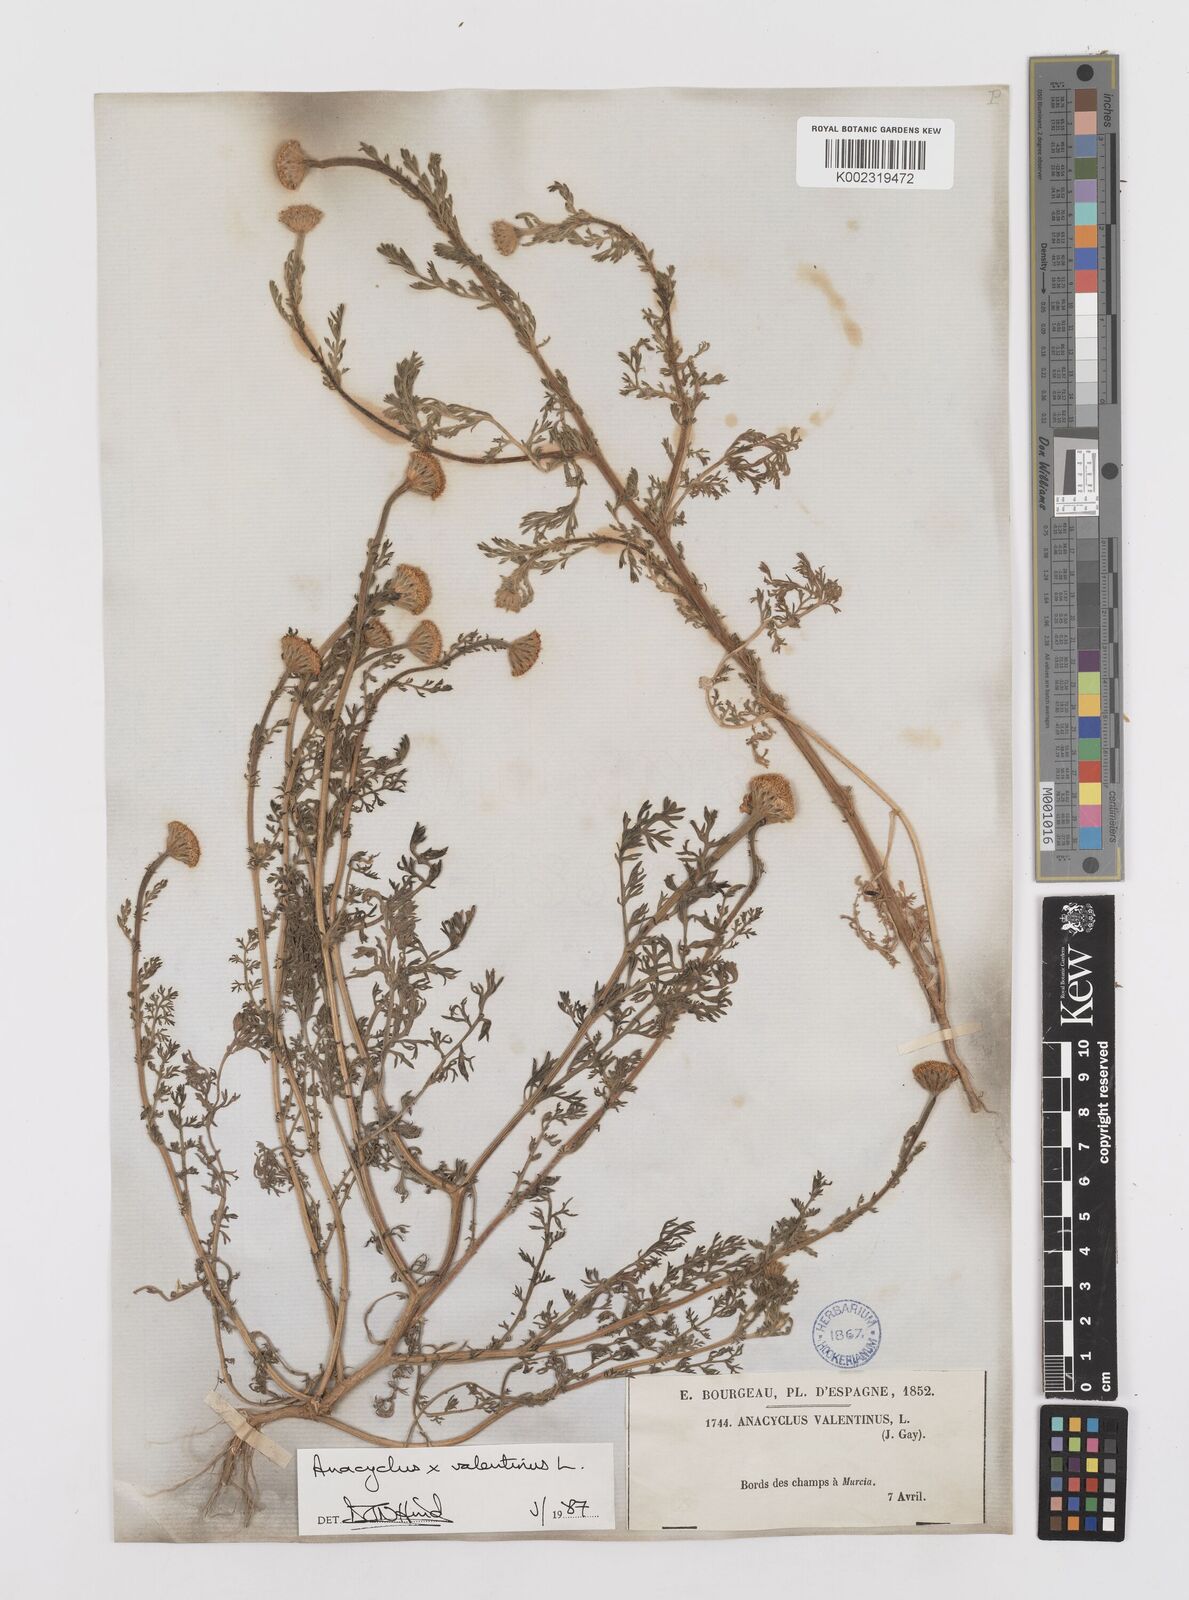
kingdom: Plantae
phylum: Tracheophyta
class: Magnoliopsida
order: Asterales
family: Asteraceae
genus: Anacyclus
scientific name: Anacyclus valentinus
